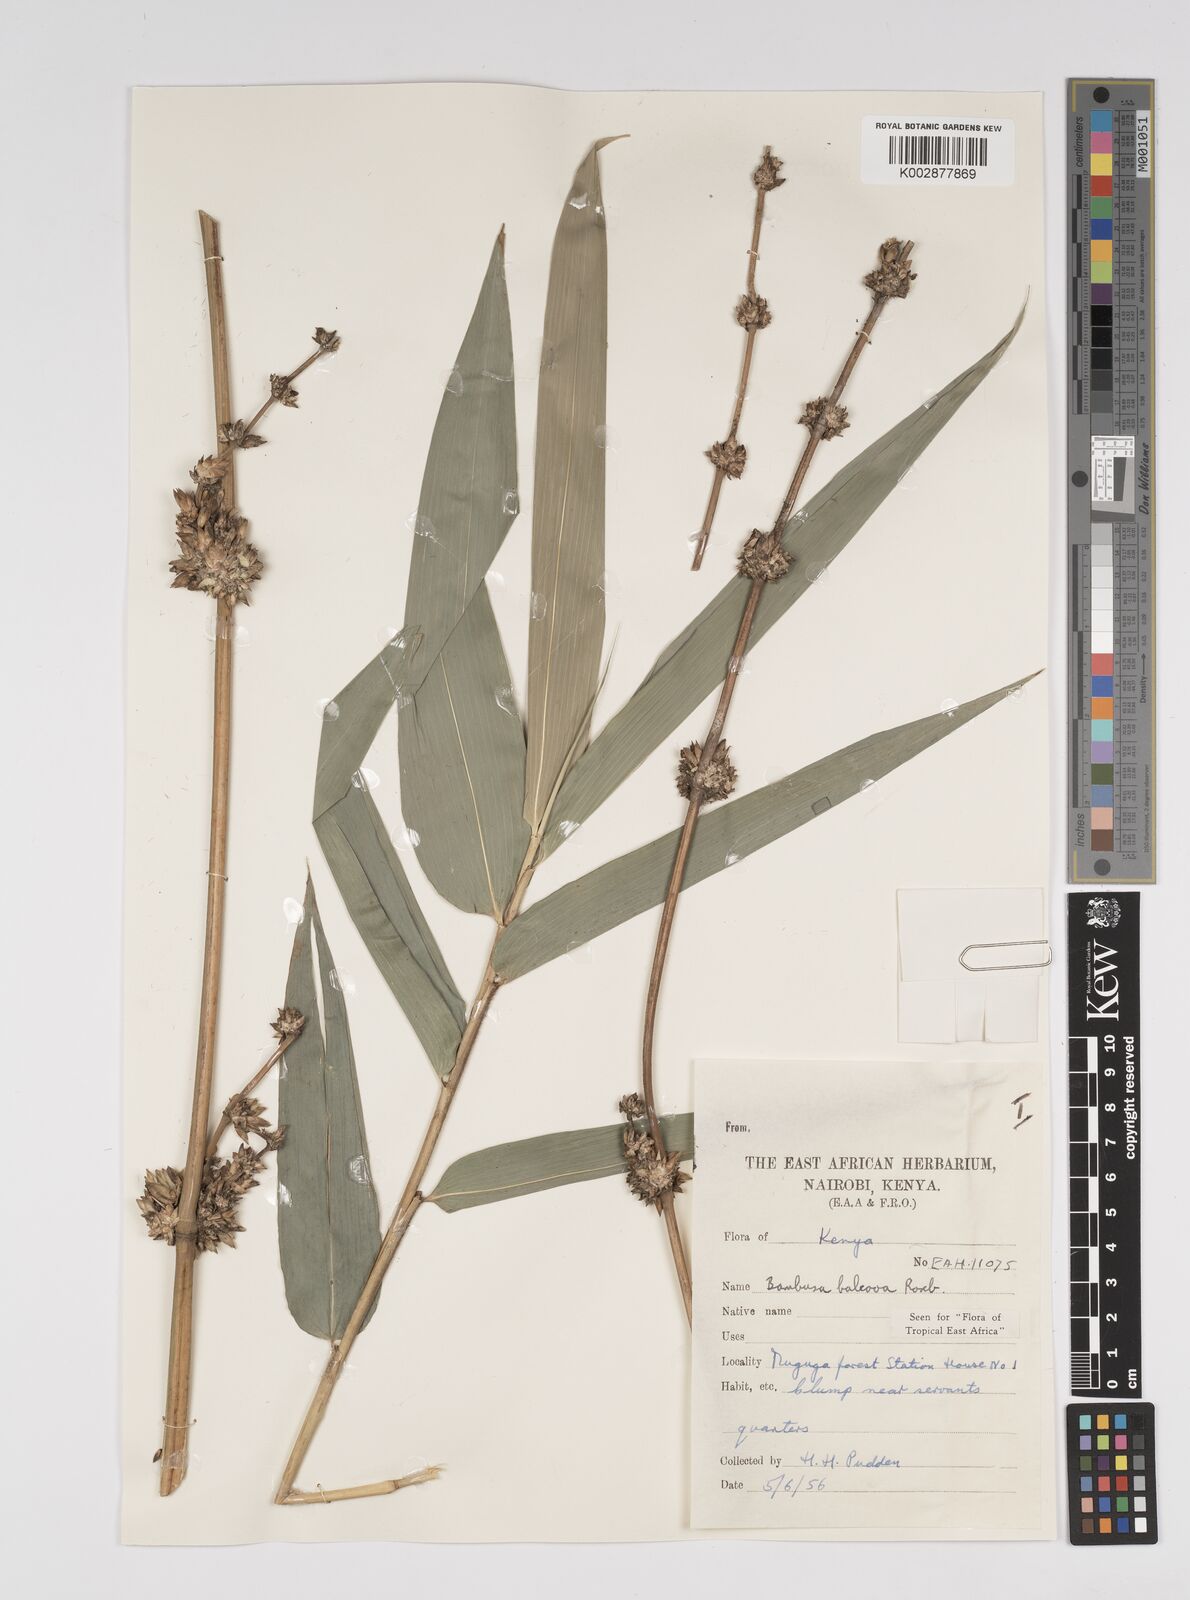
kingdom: Plantae
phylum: Tracheophyta
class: Liliopsida
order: Poales
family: Poaceae
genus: Bambusa
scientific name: Bambusa balcooa
